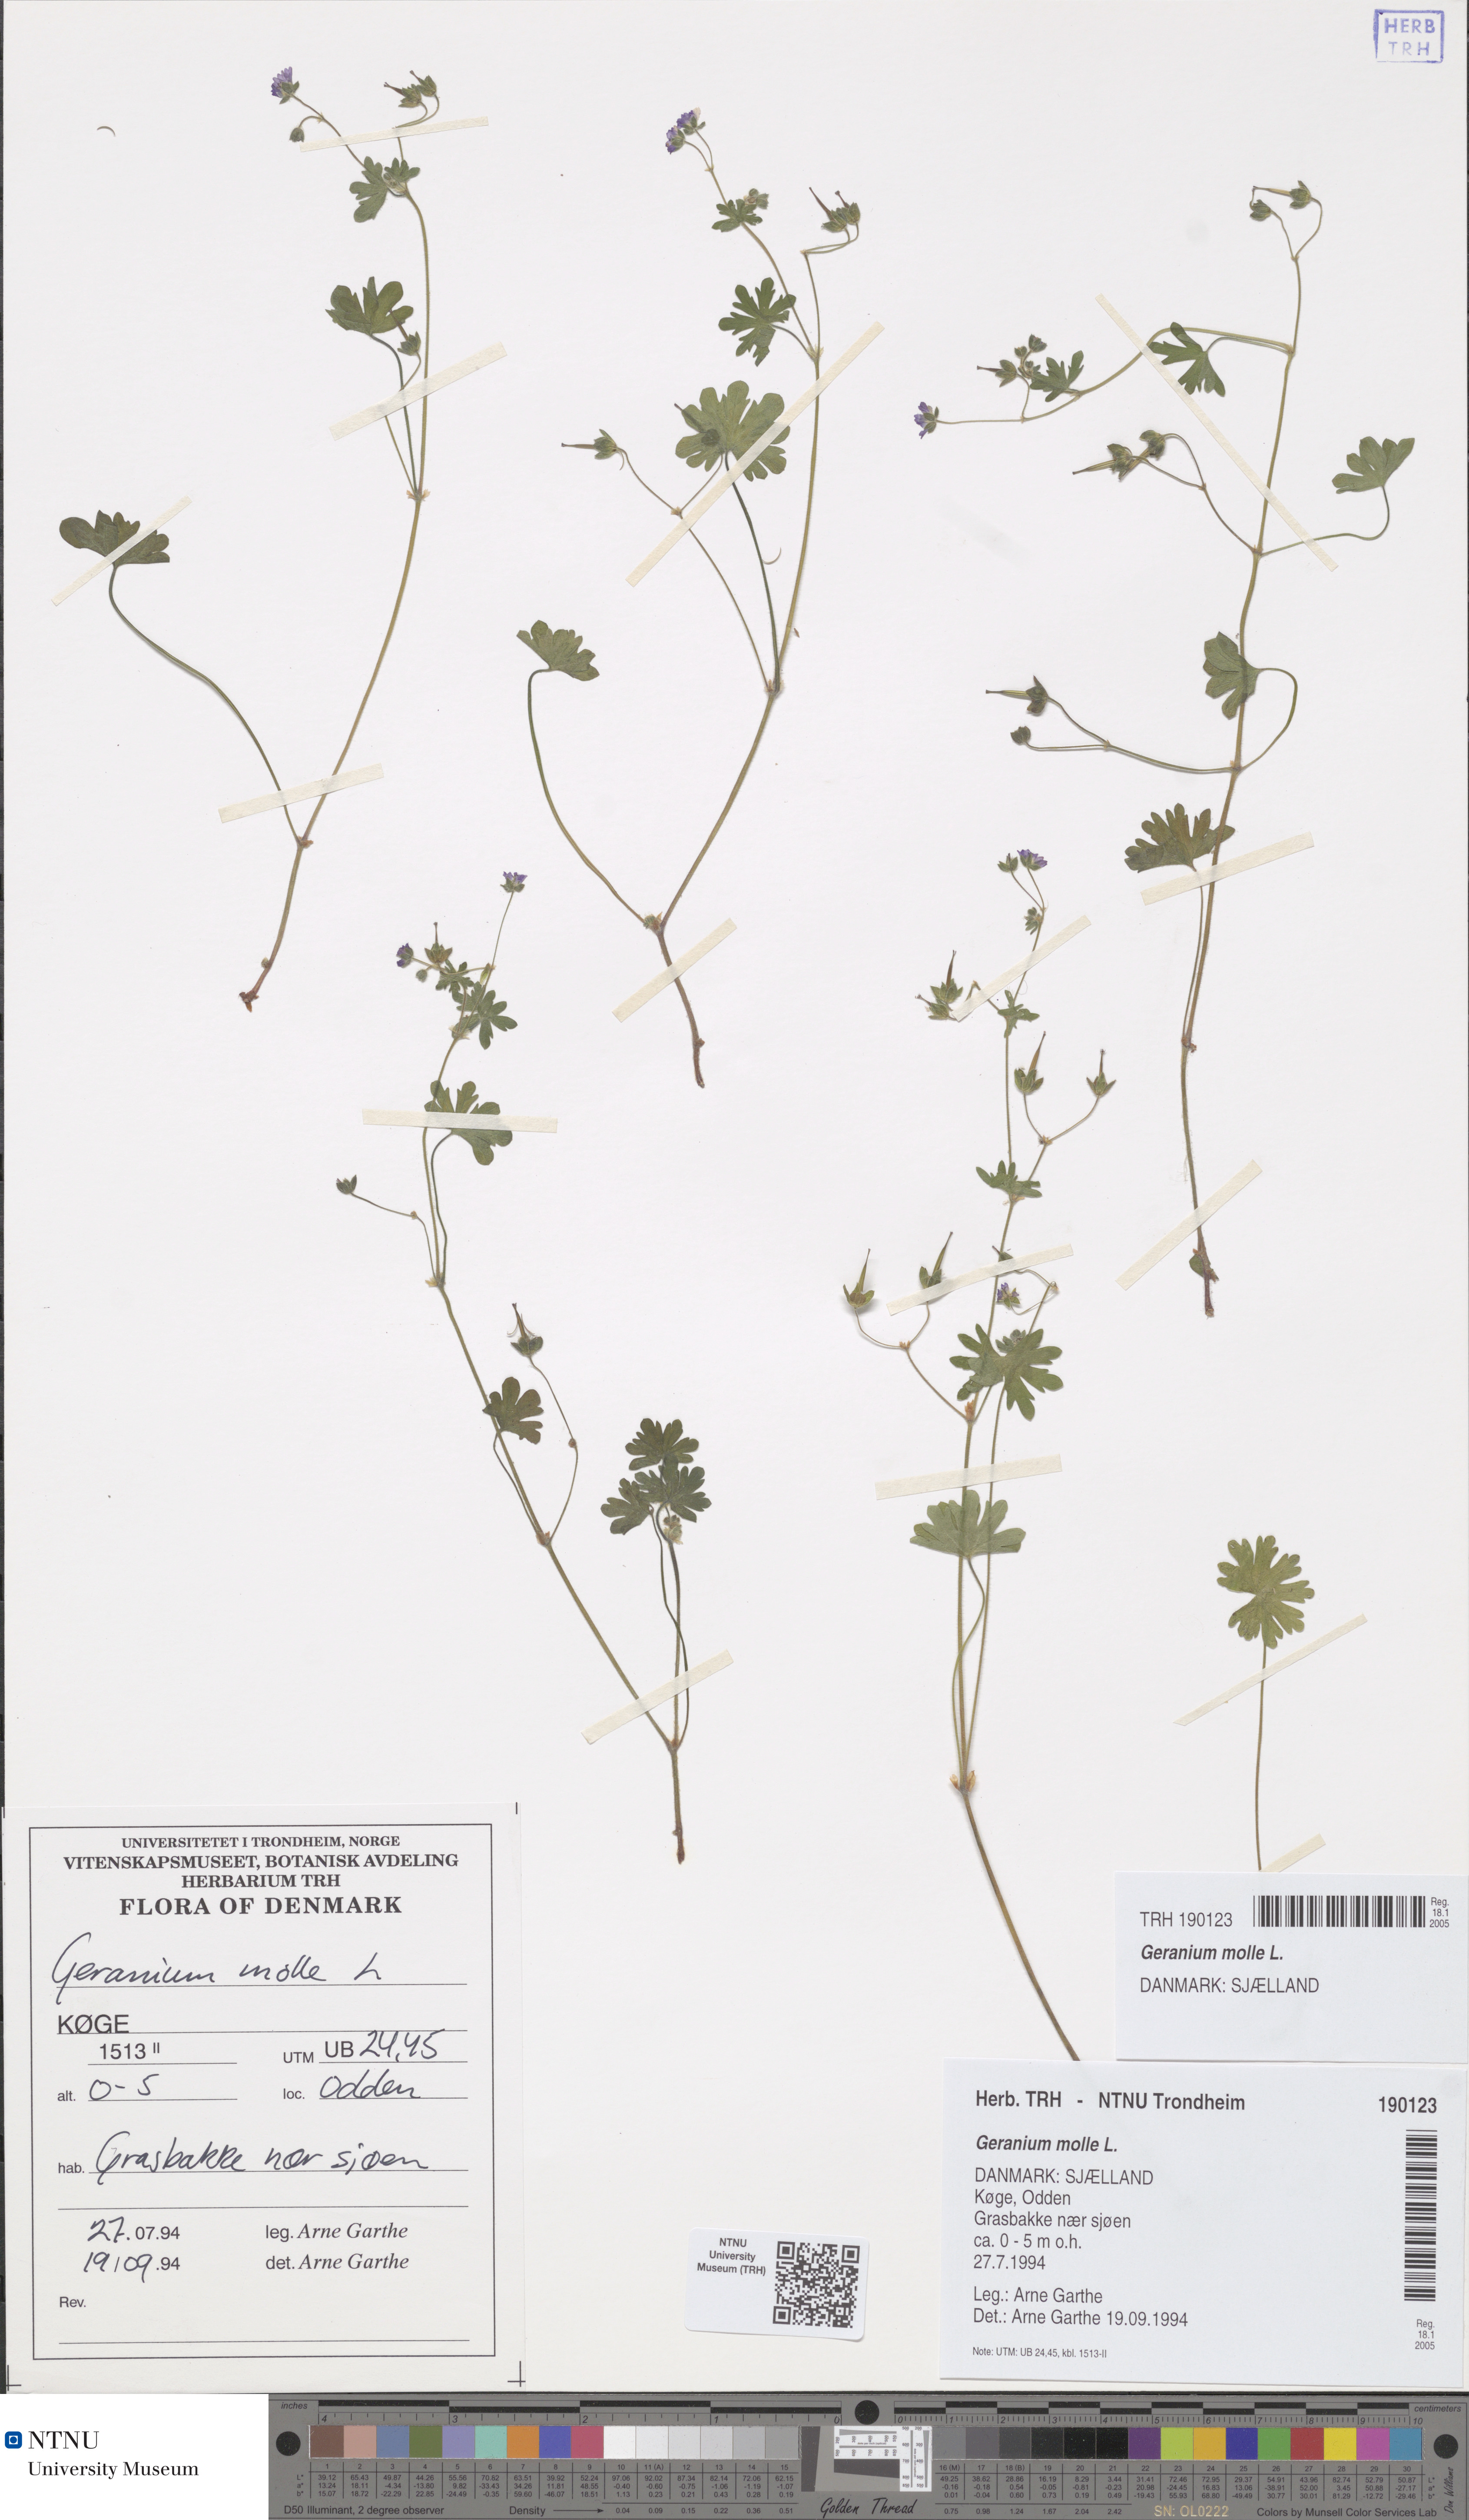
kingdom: Plantae
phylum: Tracheophyta
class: Magnoliopsida
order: Geraniales
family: Geraniaceae
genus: Geranium
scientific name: Geranium molle
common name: Dove's-foot crane's-bill
